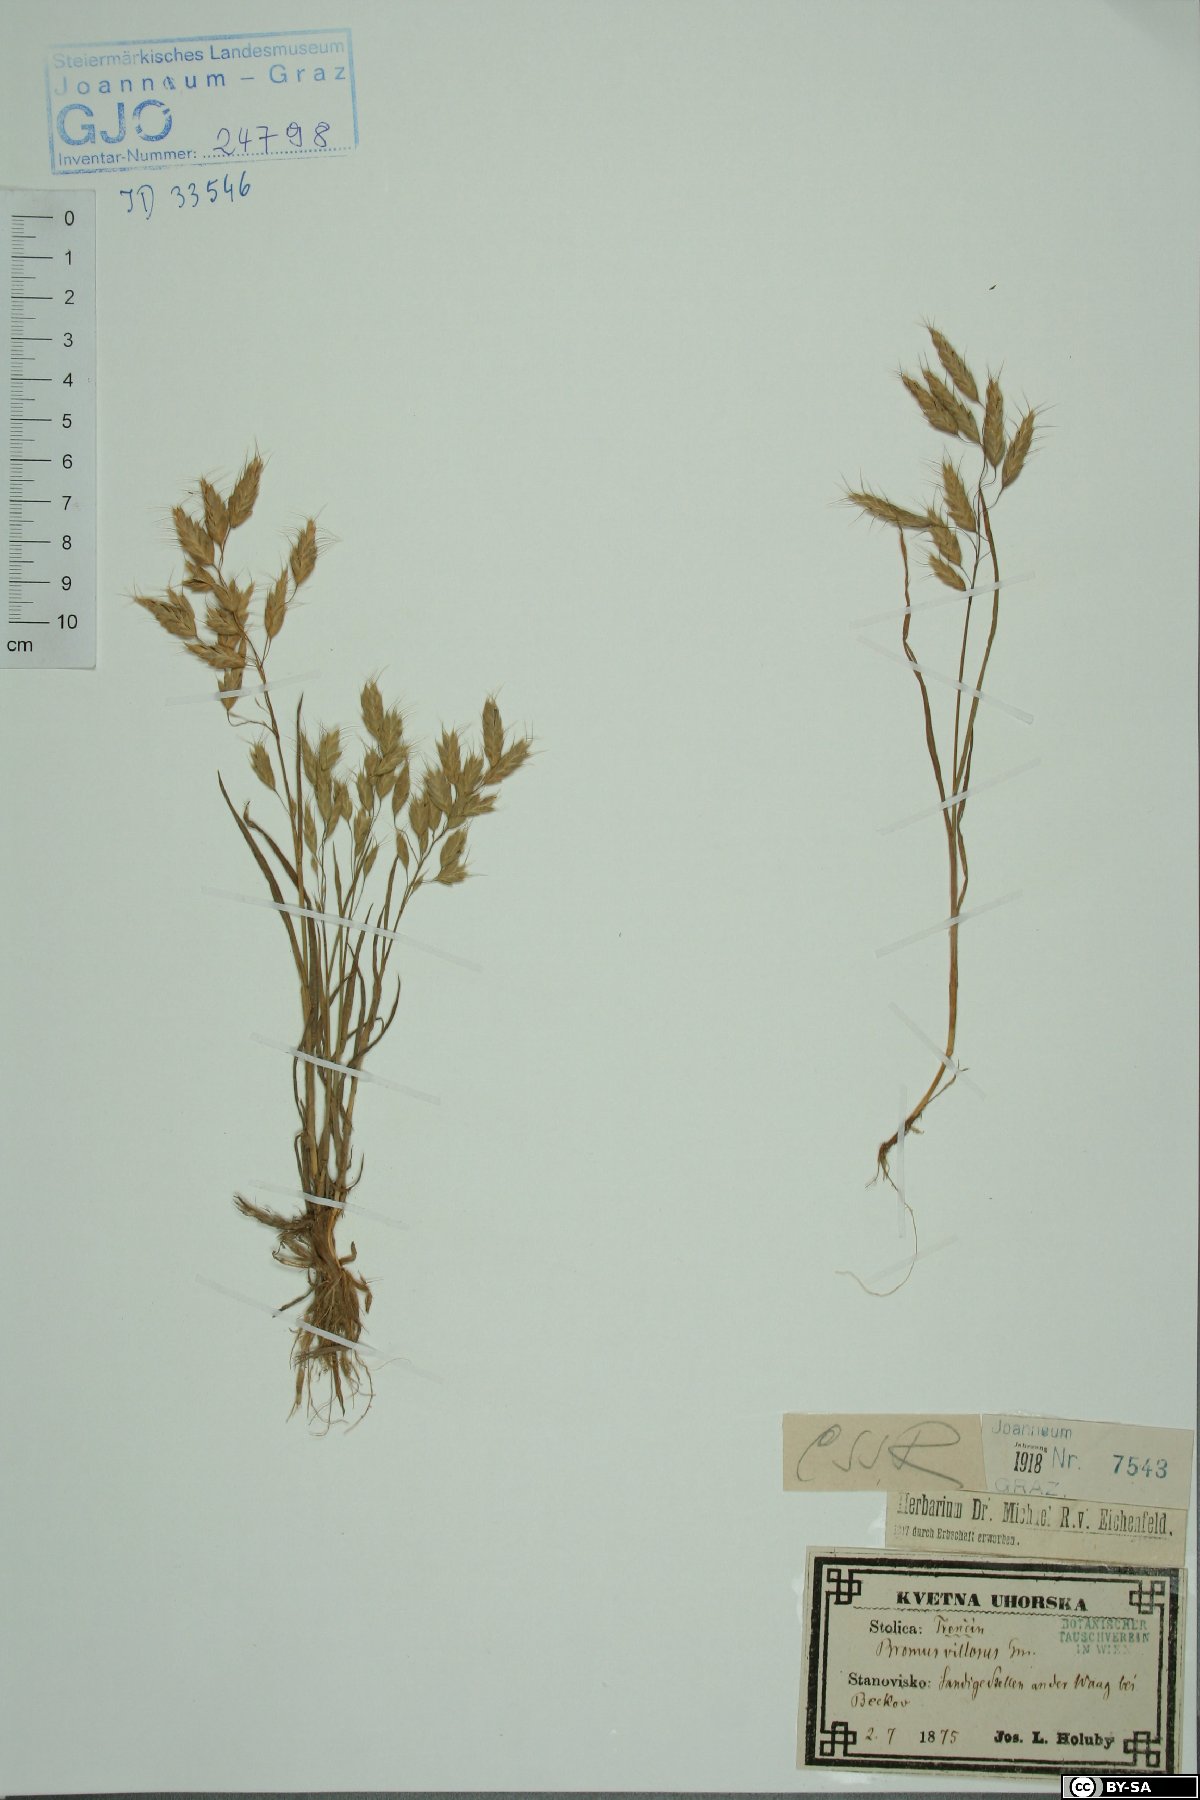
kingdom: Plantae
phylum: Tracheophyta
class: Liliopsida
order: Poales
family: Poaceae
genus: Bromus
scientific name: Bromus squarrosus
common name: Corn brome
